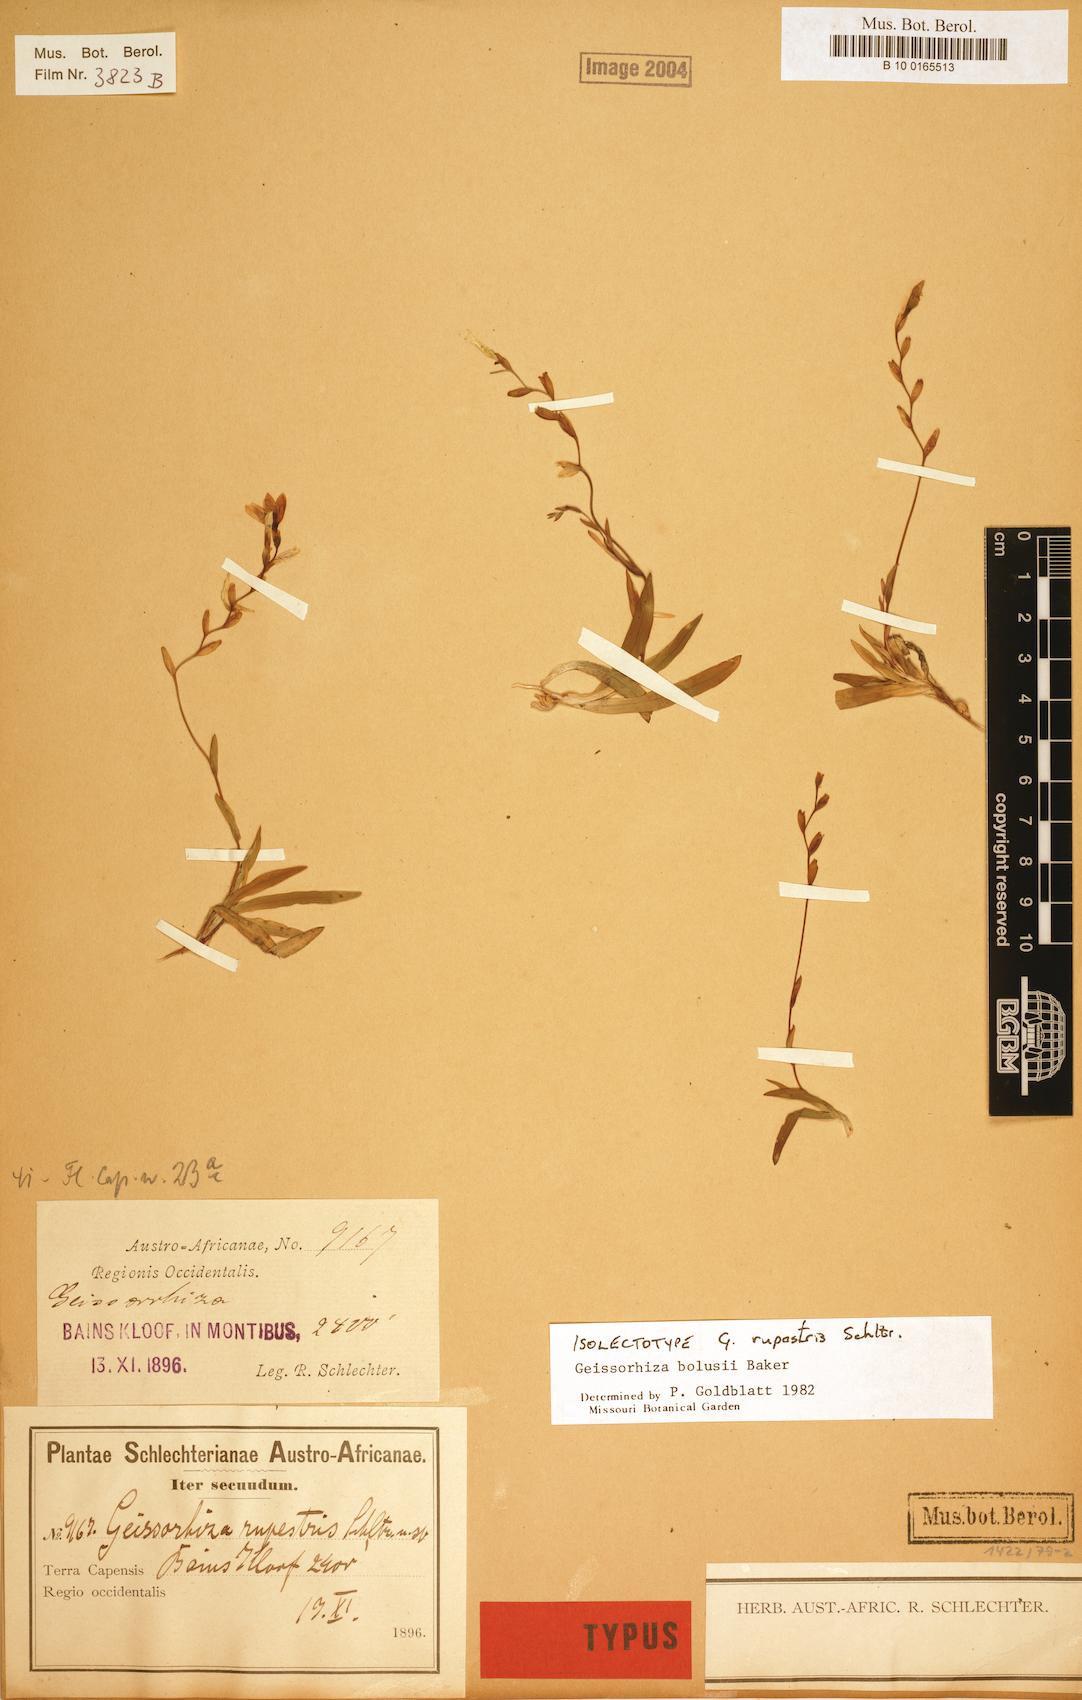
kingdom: Plantae
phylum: Tracheophyta
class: Liliopsida
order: Asparagales
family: Iridaceae
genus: Geissorhiza
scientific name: Geissorhiza bolusii
